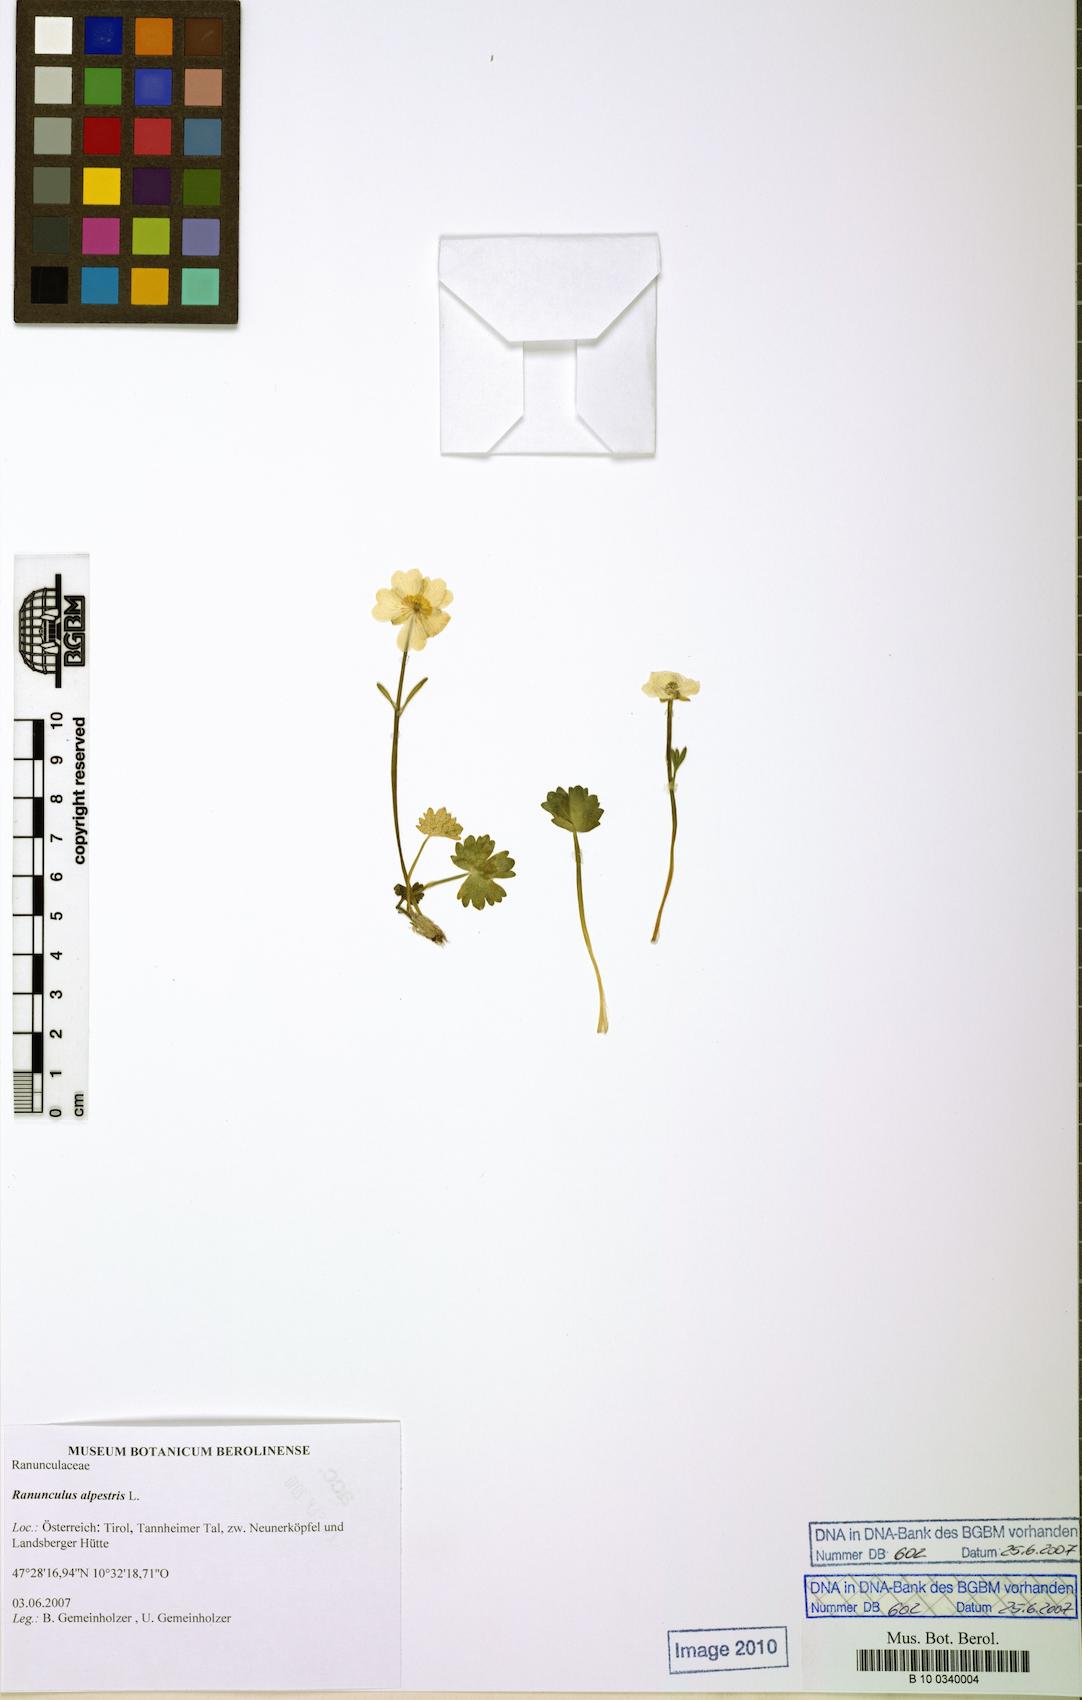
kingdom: Plantae
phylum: Tracheophyta
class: Magnoliopsida
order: Ranunculales
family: Ranunculaceae
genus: Ranunculus
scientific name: Ranunculus alpestris
